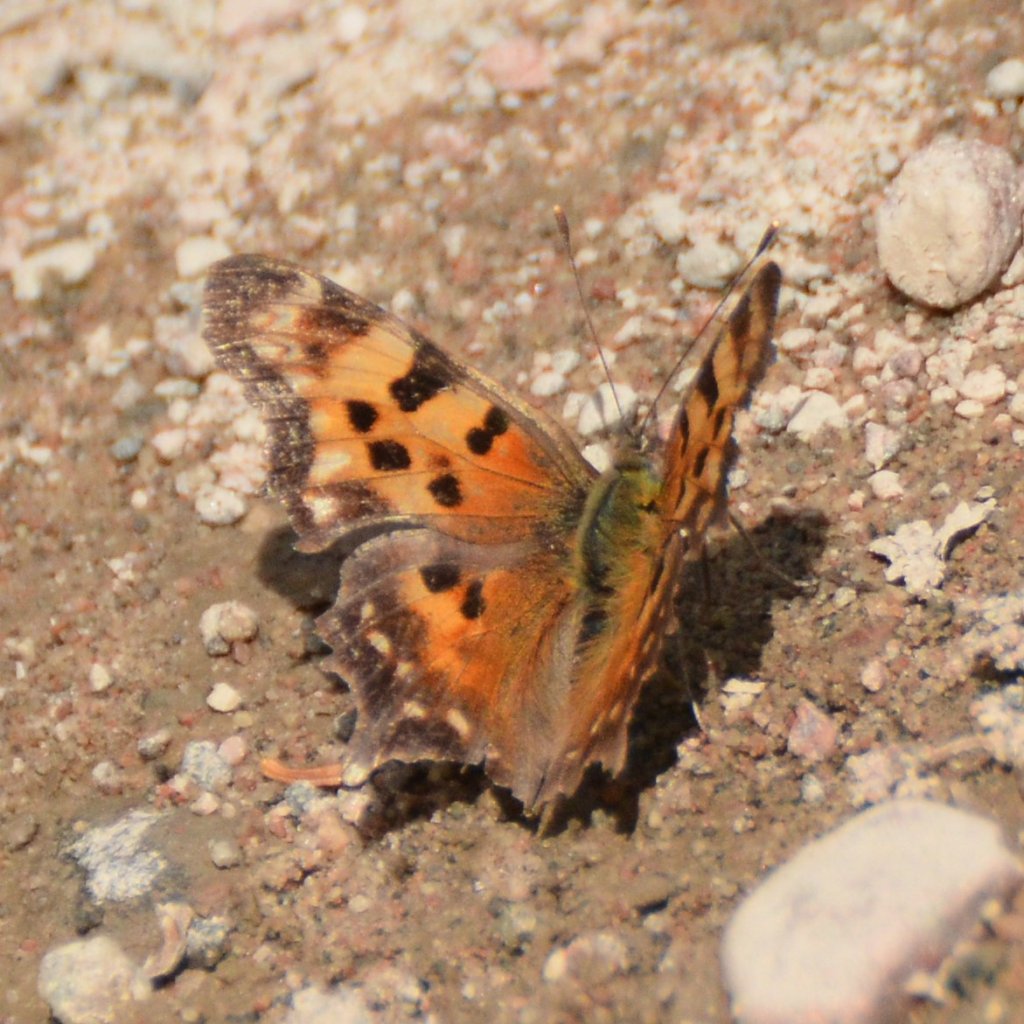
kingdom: Animalia
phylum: Arthropoda
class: Insecta
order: Lepidoptera
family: Nymphalidae
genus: Polygonia
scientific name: Polygonia faunus
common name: Green Comma
